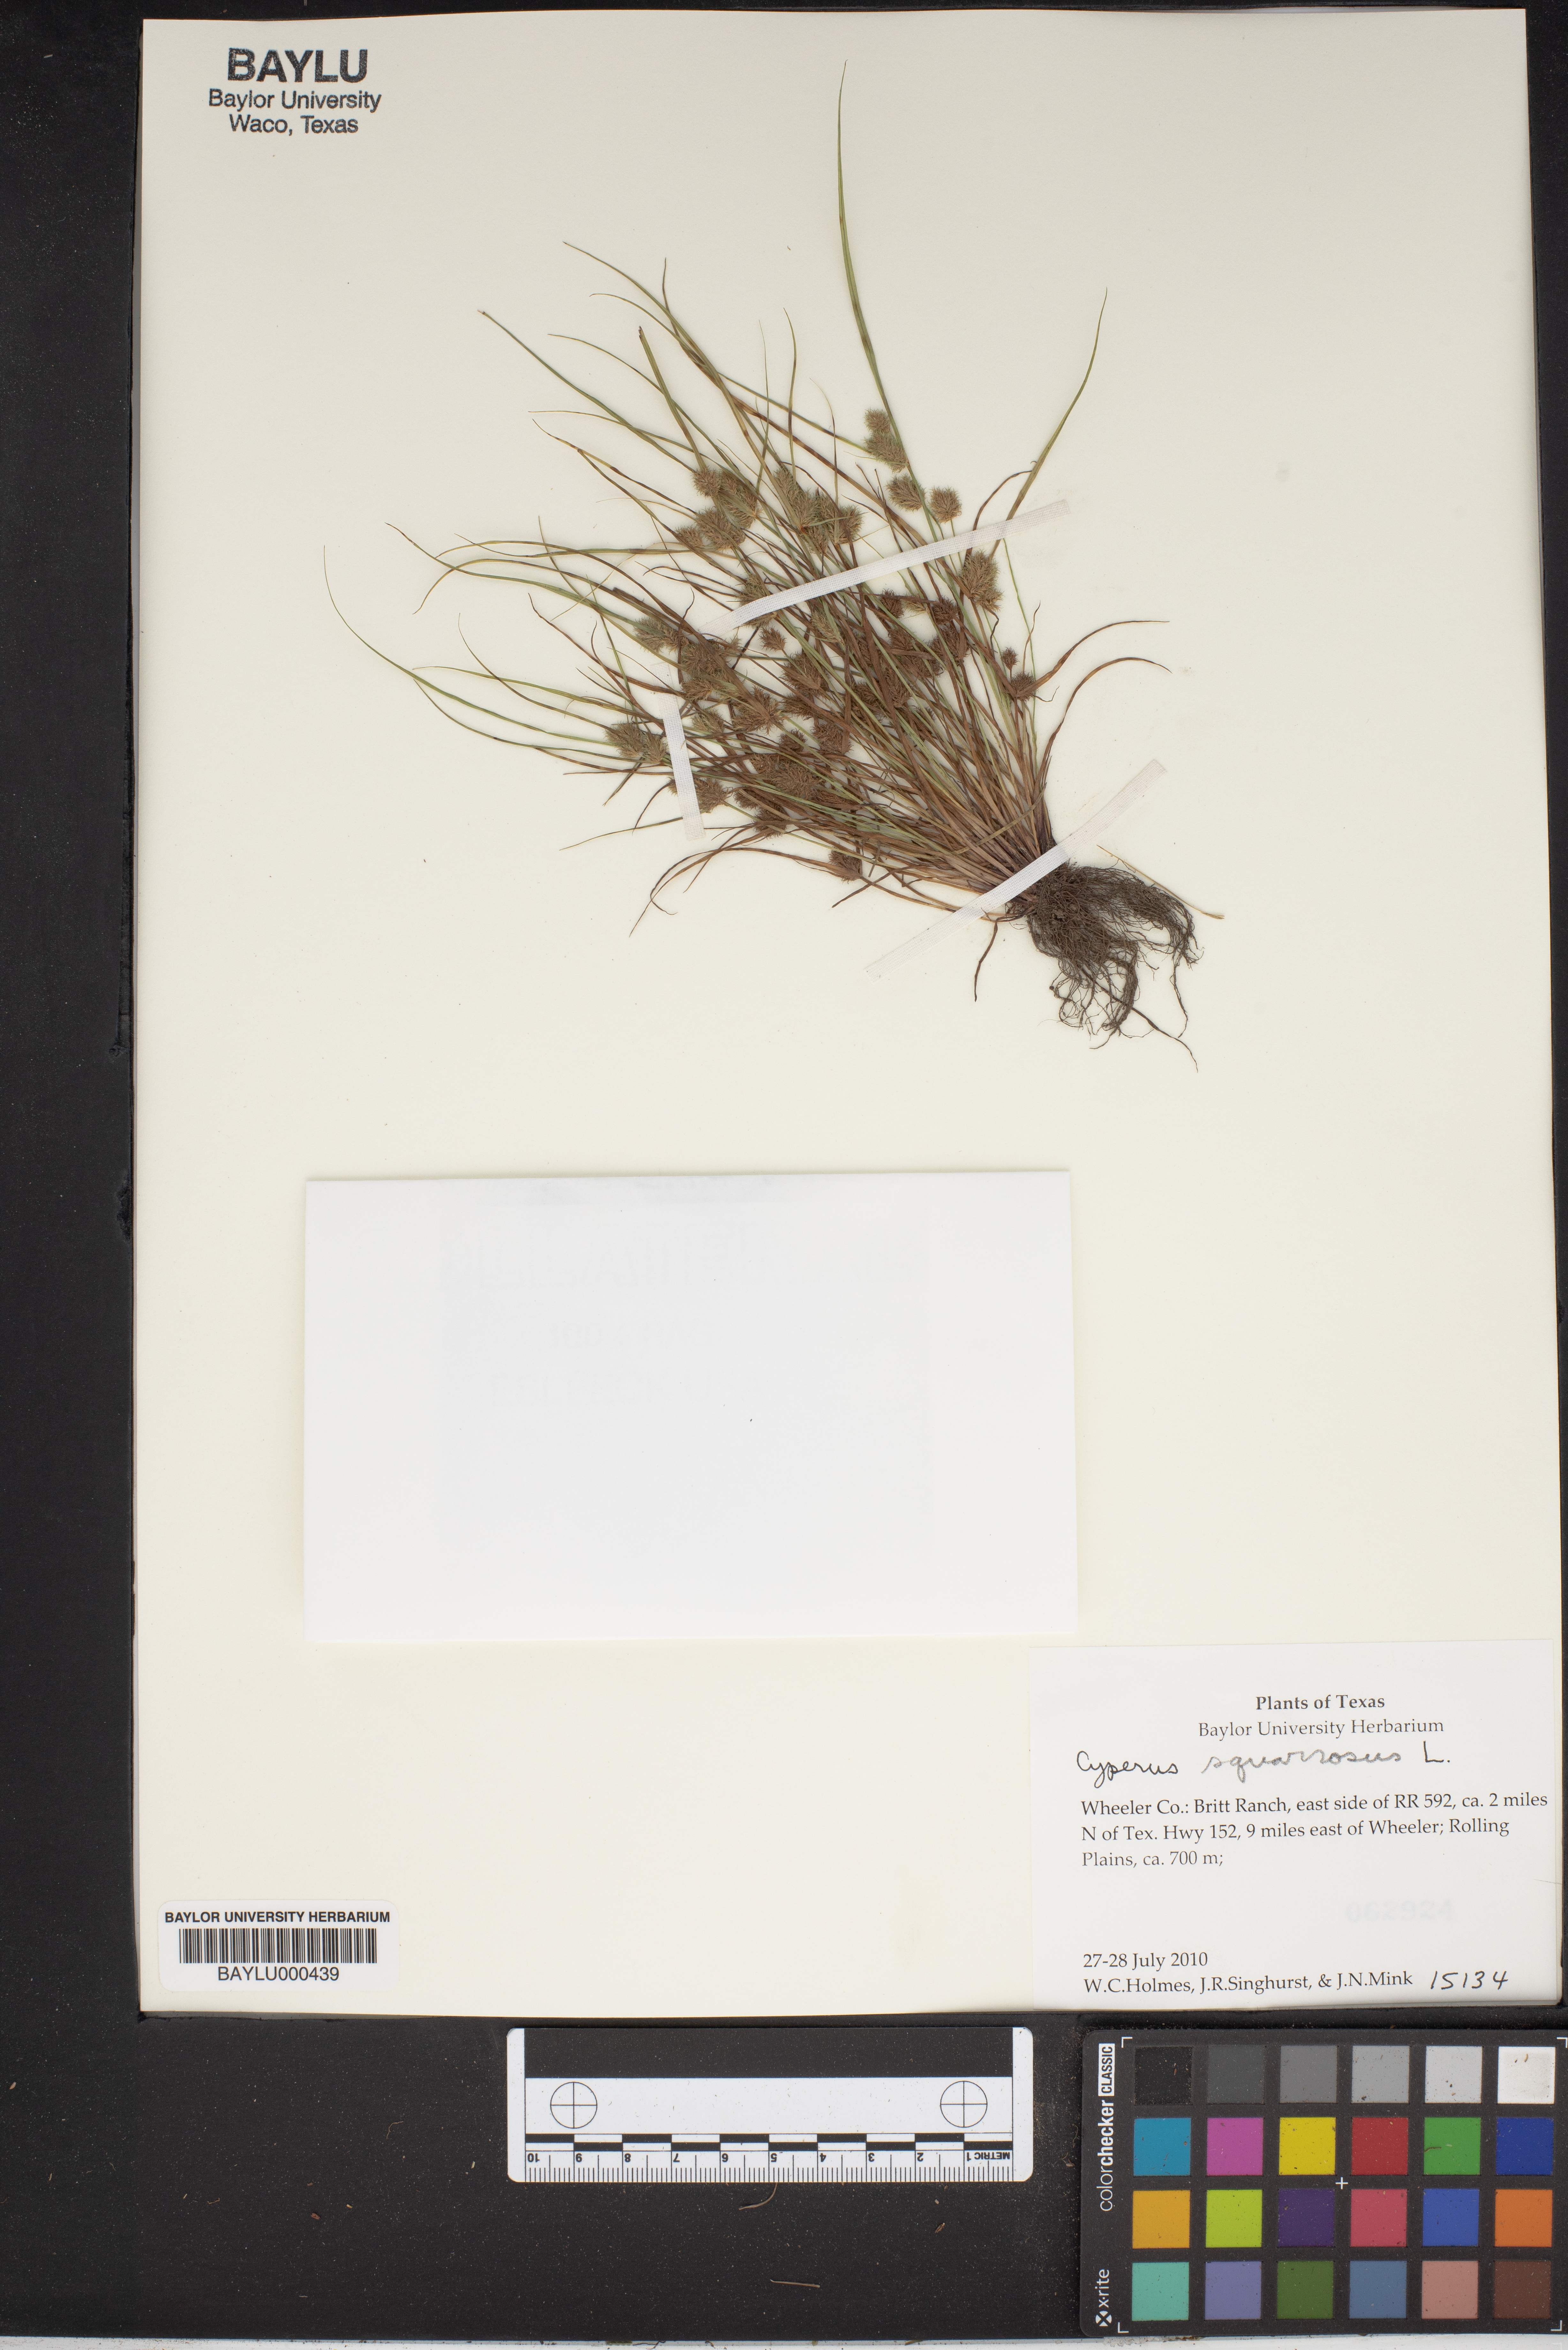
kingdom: Plantae
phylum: Tracheophyta
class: Liliopsida
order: Poales
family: Cyperaceae
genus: Cyperus
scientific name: Cyperus squarrosus
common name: Awned cyperus
